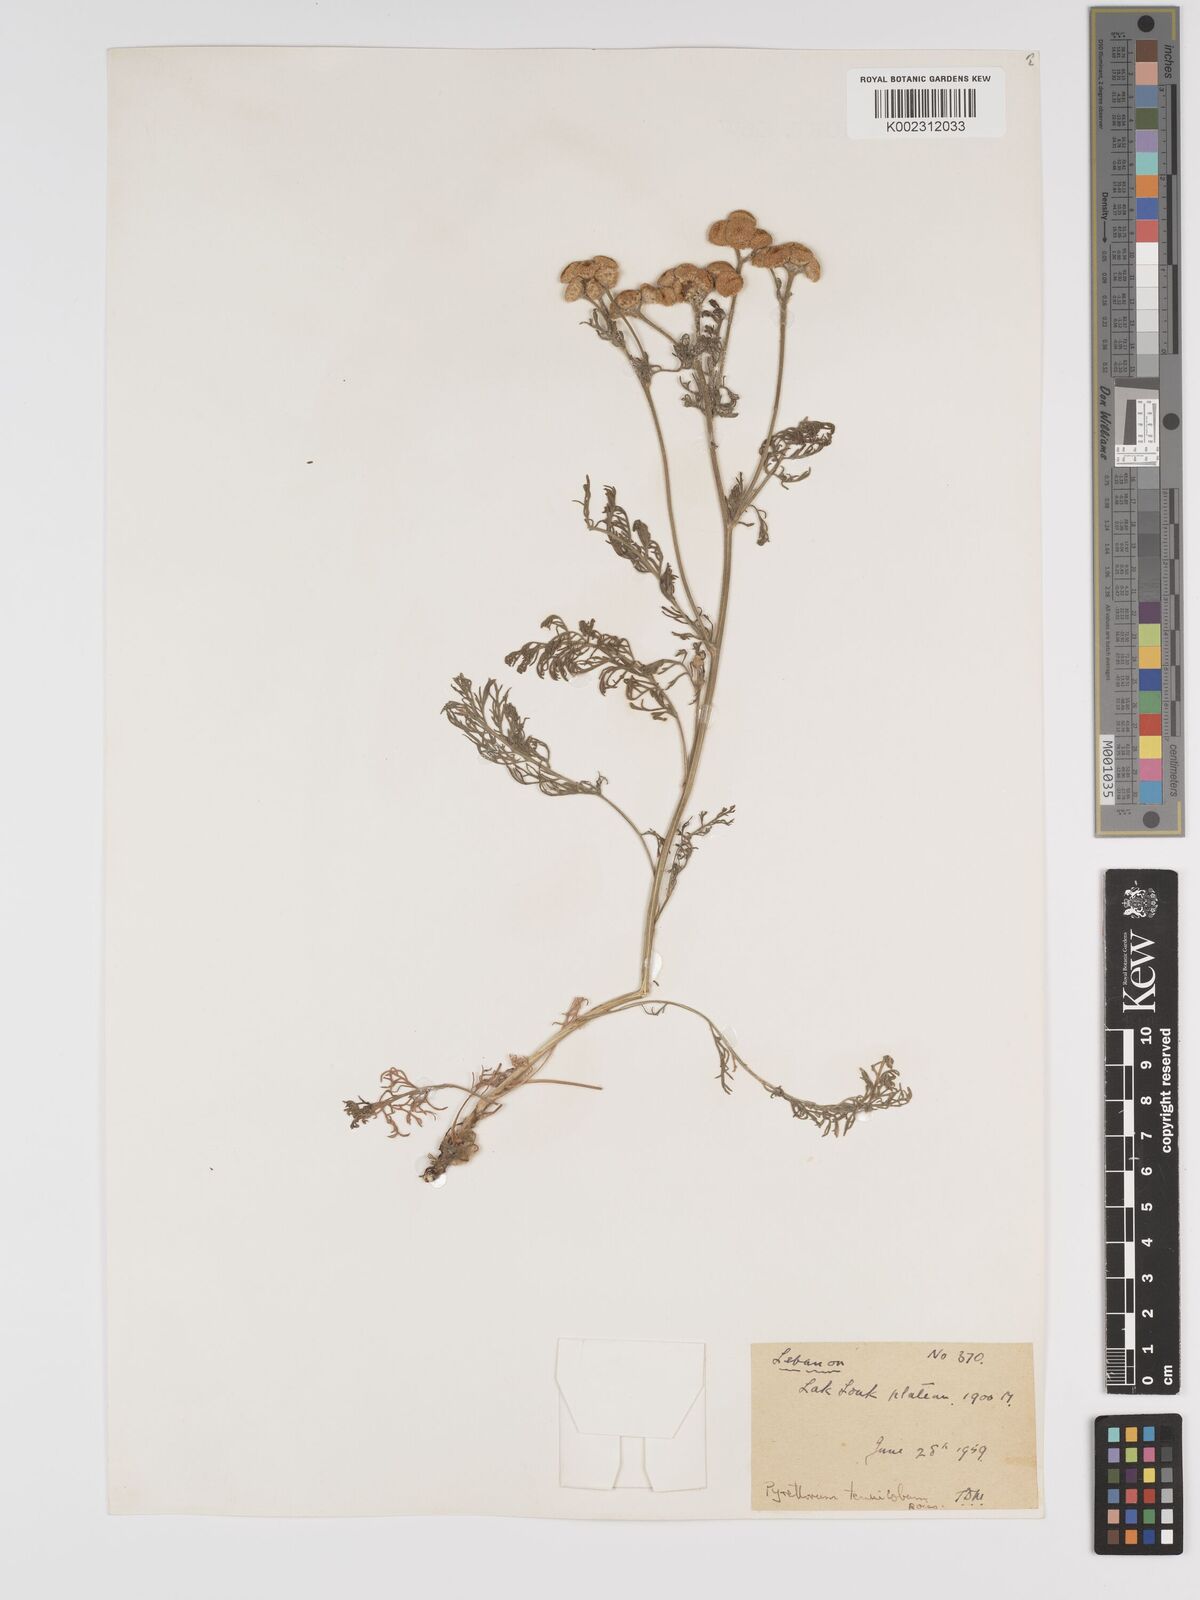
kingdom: Plantae
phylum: Tracheophyta
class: Magnoliopsida
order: Asterales
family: Asteraceae
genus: Tanacetum
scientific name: Tanacetum aucheri
